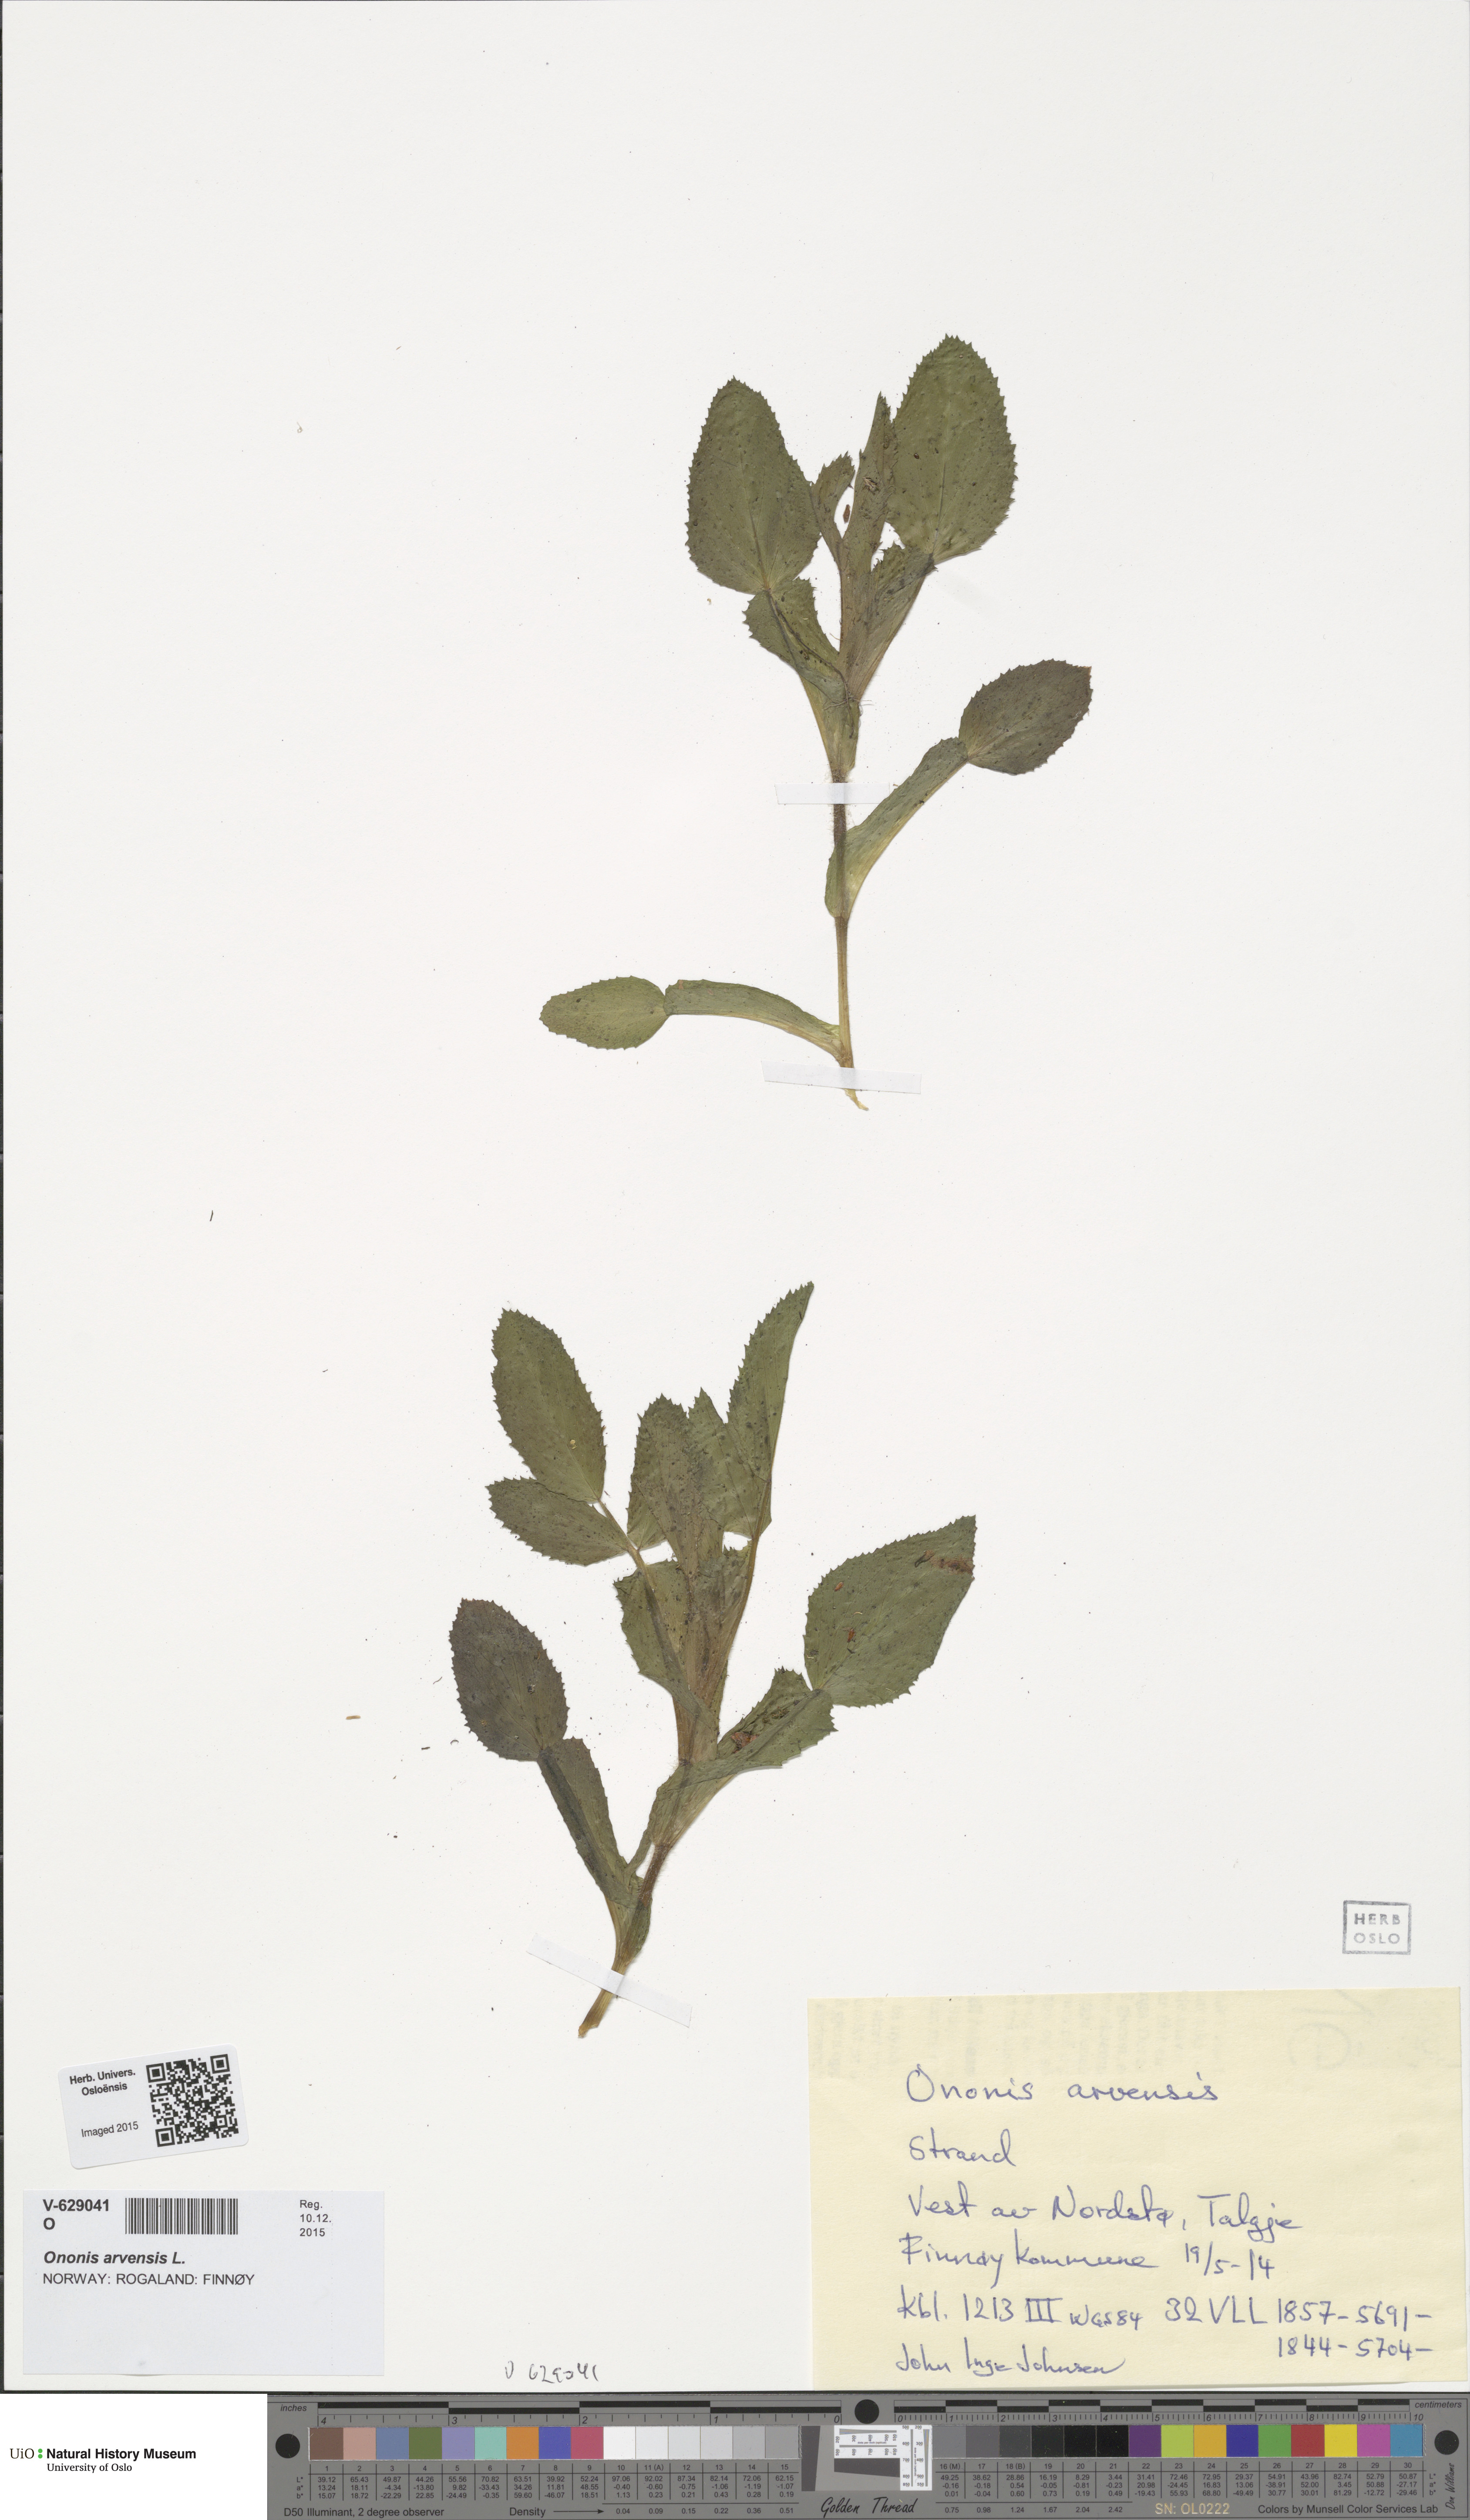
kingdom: Plantae
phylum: Tracheophyta
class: Magnoliopsida
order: Fabales
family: Fabaceae
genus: Ononis
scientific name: Ononis arvensis
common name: Field restharrow
